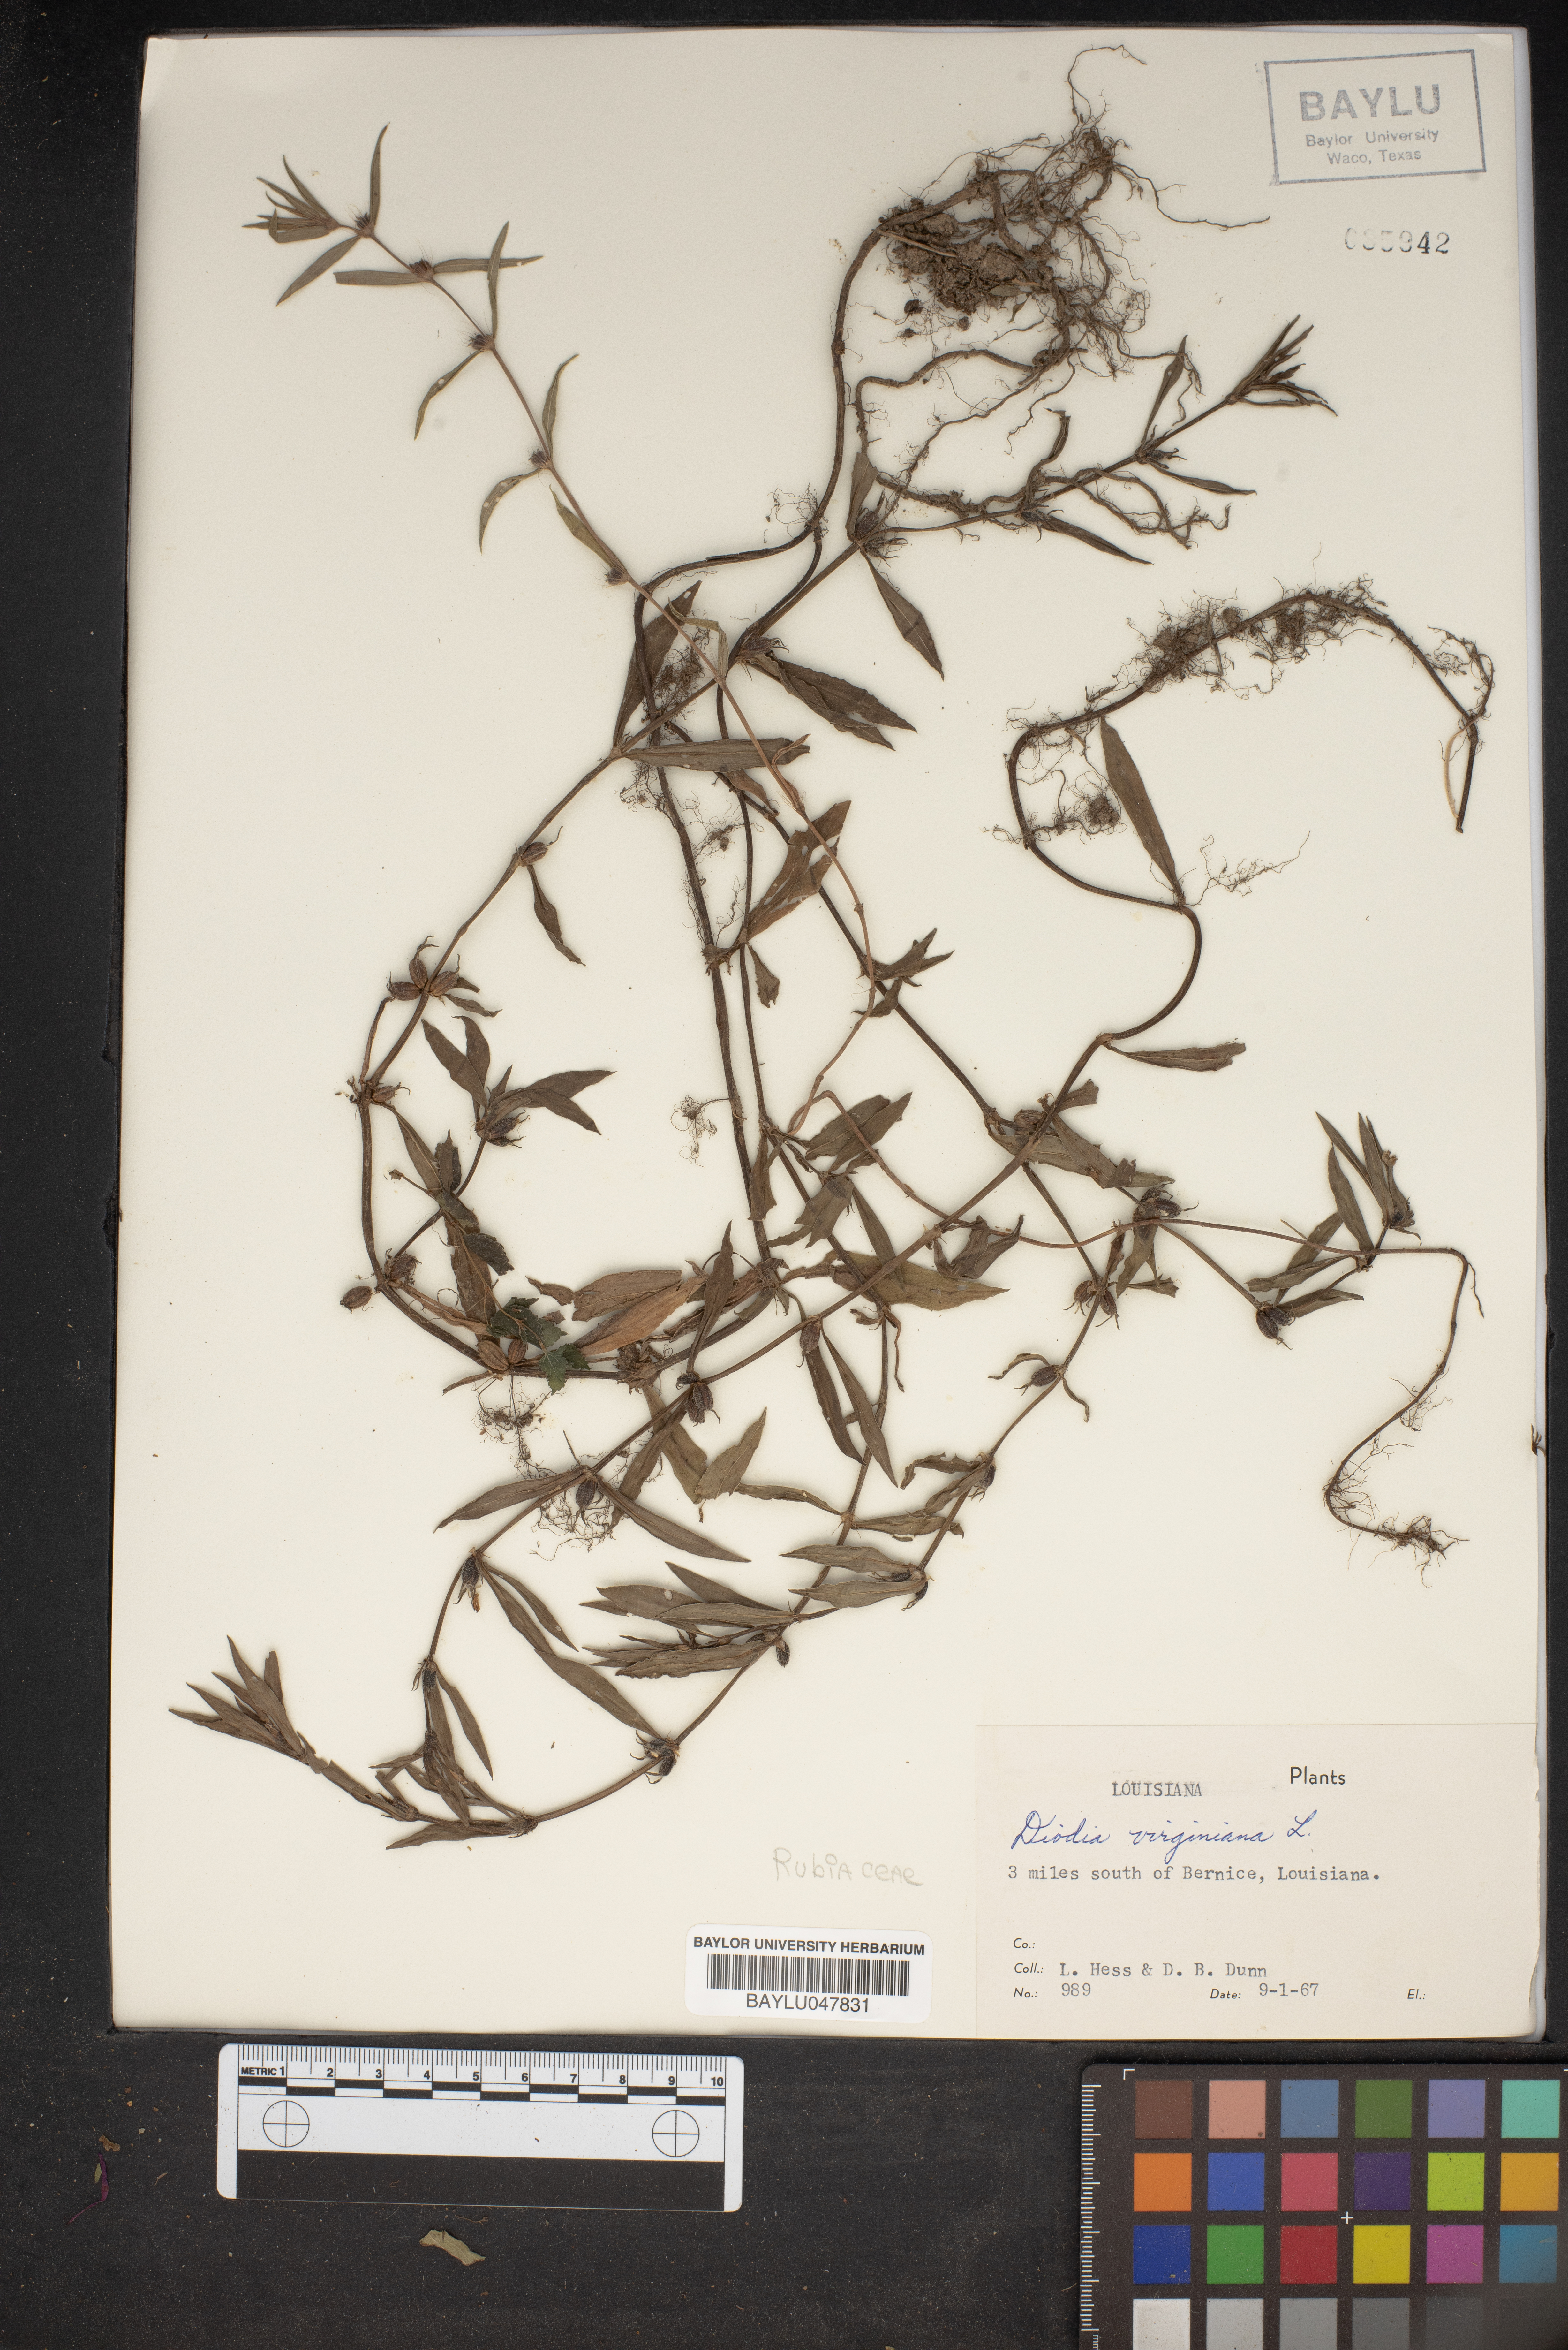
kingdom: Plantae
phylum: Tracheophyta
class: Magnoliopsida
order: Gentianales
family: Rubiaceae
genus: Diodia
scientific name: Diodia virginiana
